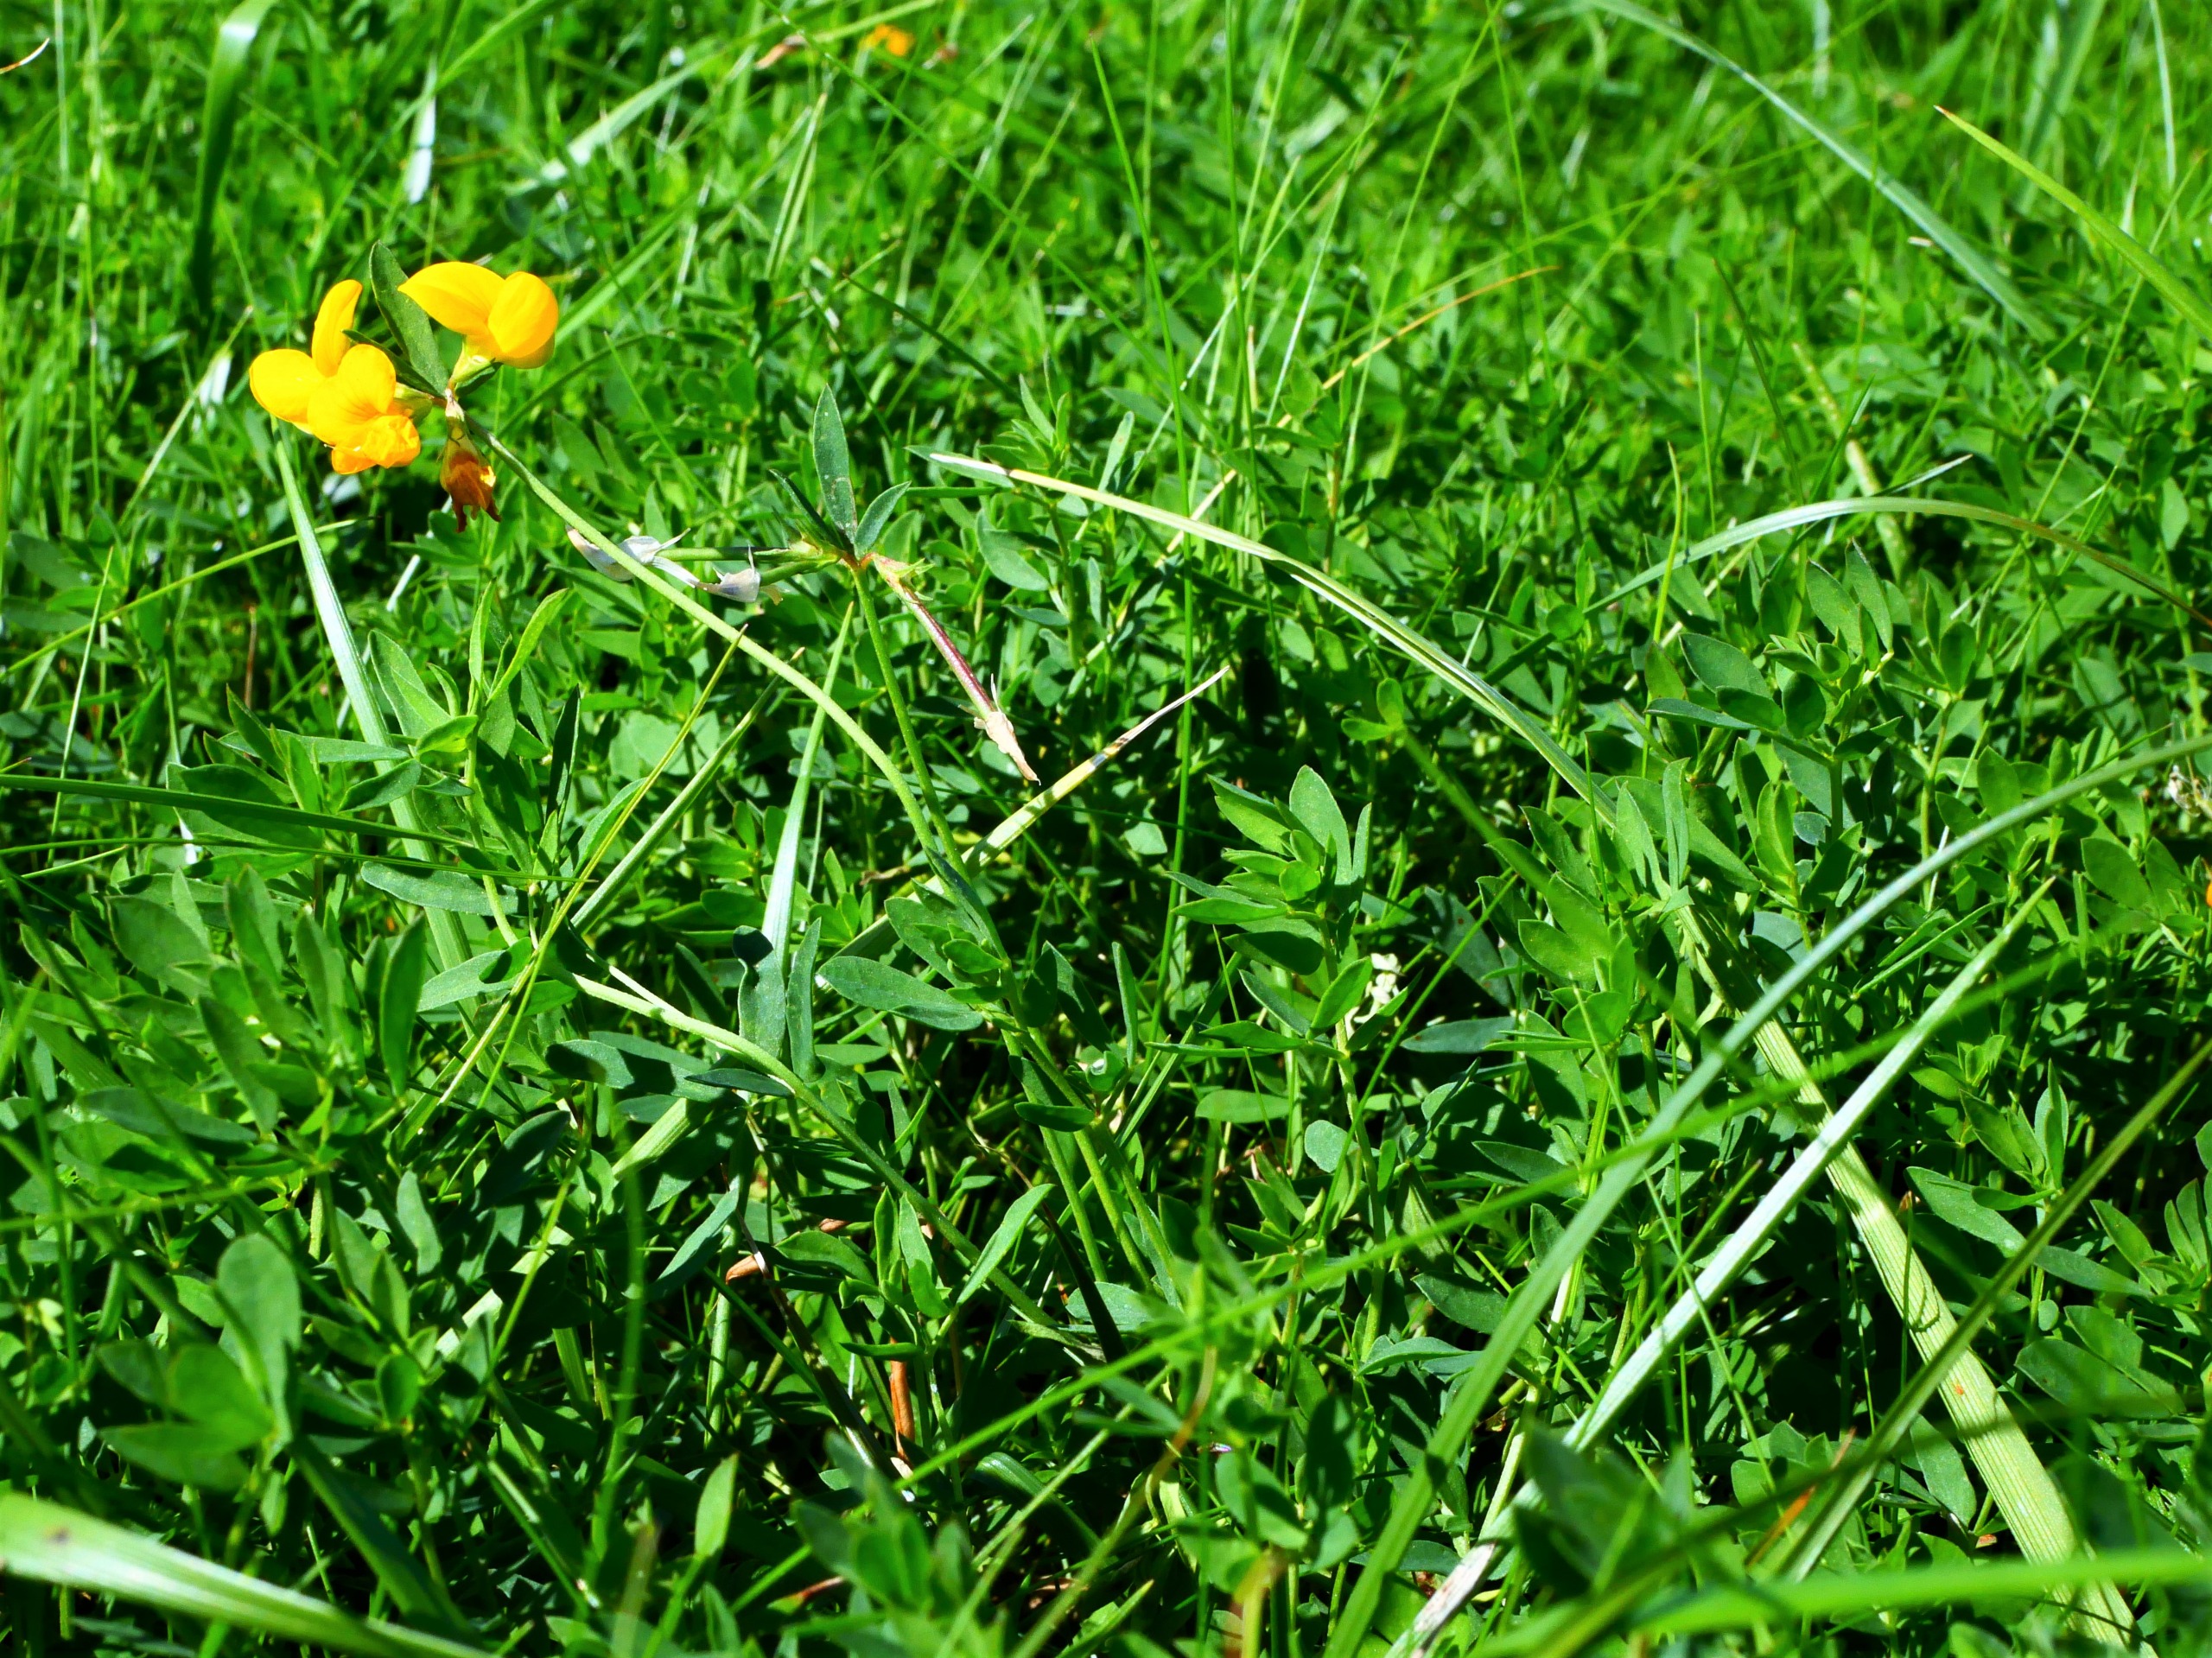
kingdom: Plantae
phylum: Tracheophyta
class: Magnoliopsida
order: Fabales
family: Fabaceae
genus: Lotus
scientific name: Lotus tenuis
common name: Smalbladet kællingetand
